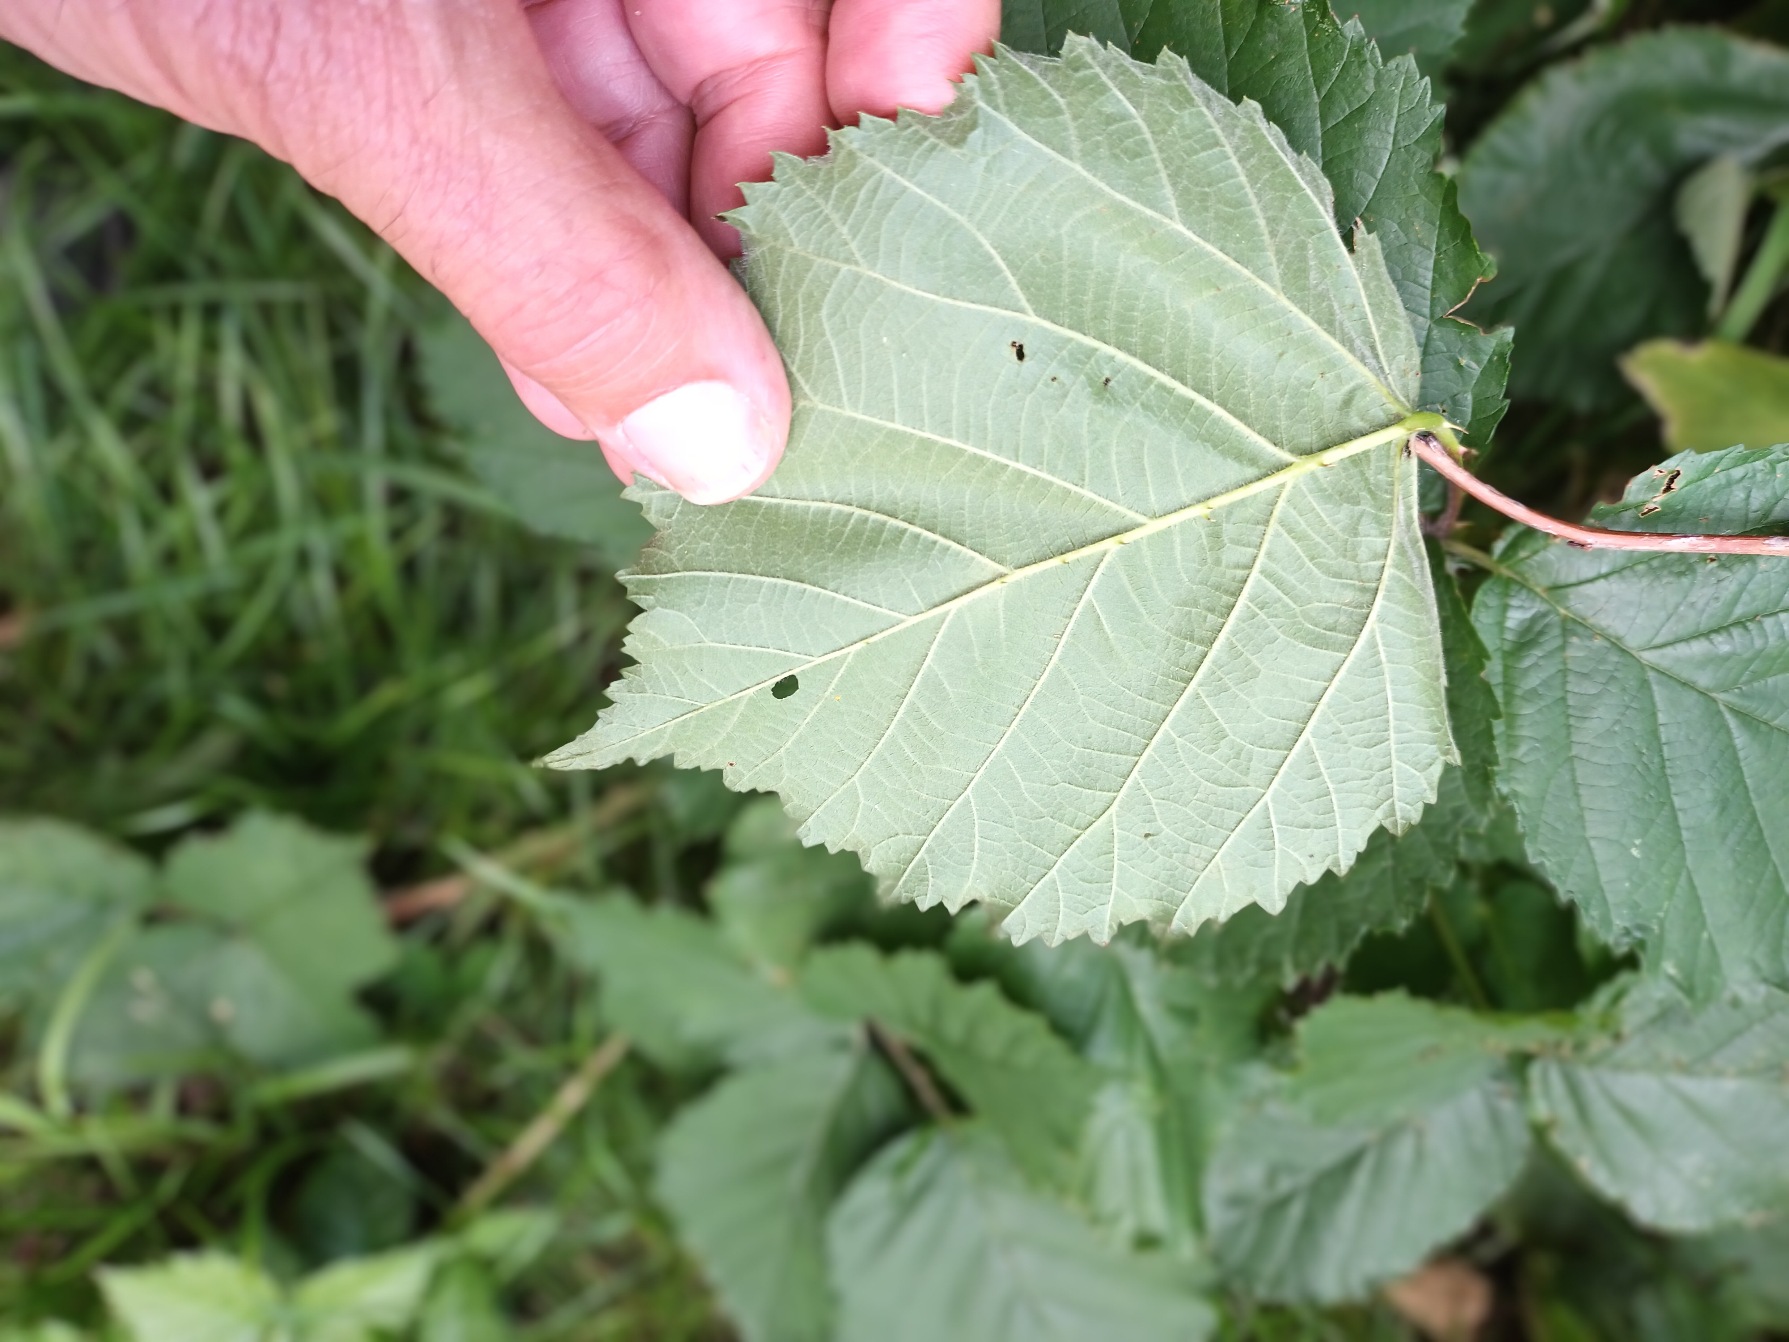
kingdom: Plantae
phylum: Tracheophyta
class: Magnoliopsida
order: Rosales
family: Rosaceae
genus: Rubus
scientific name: Rubus wahlbergii
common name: Wahlbergs hasselbrombær
